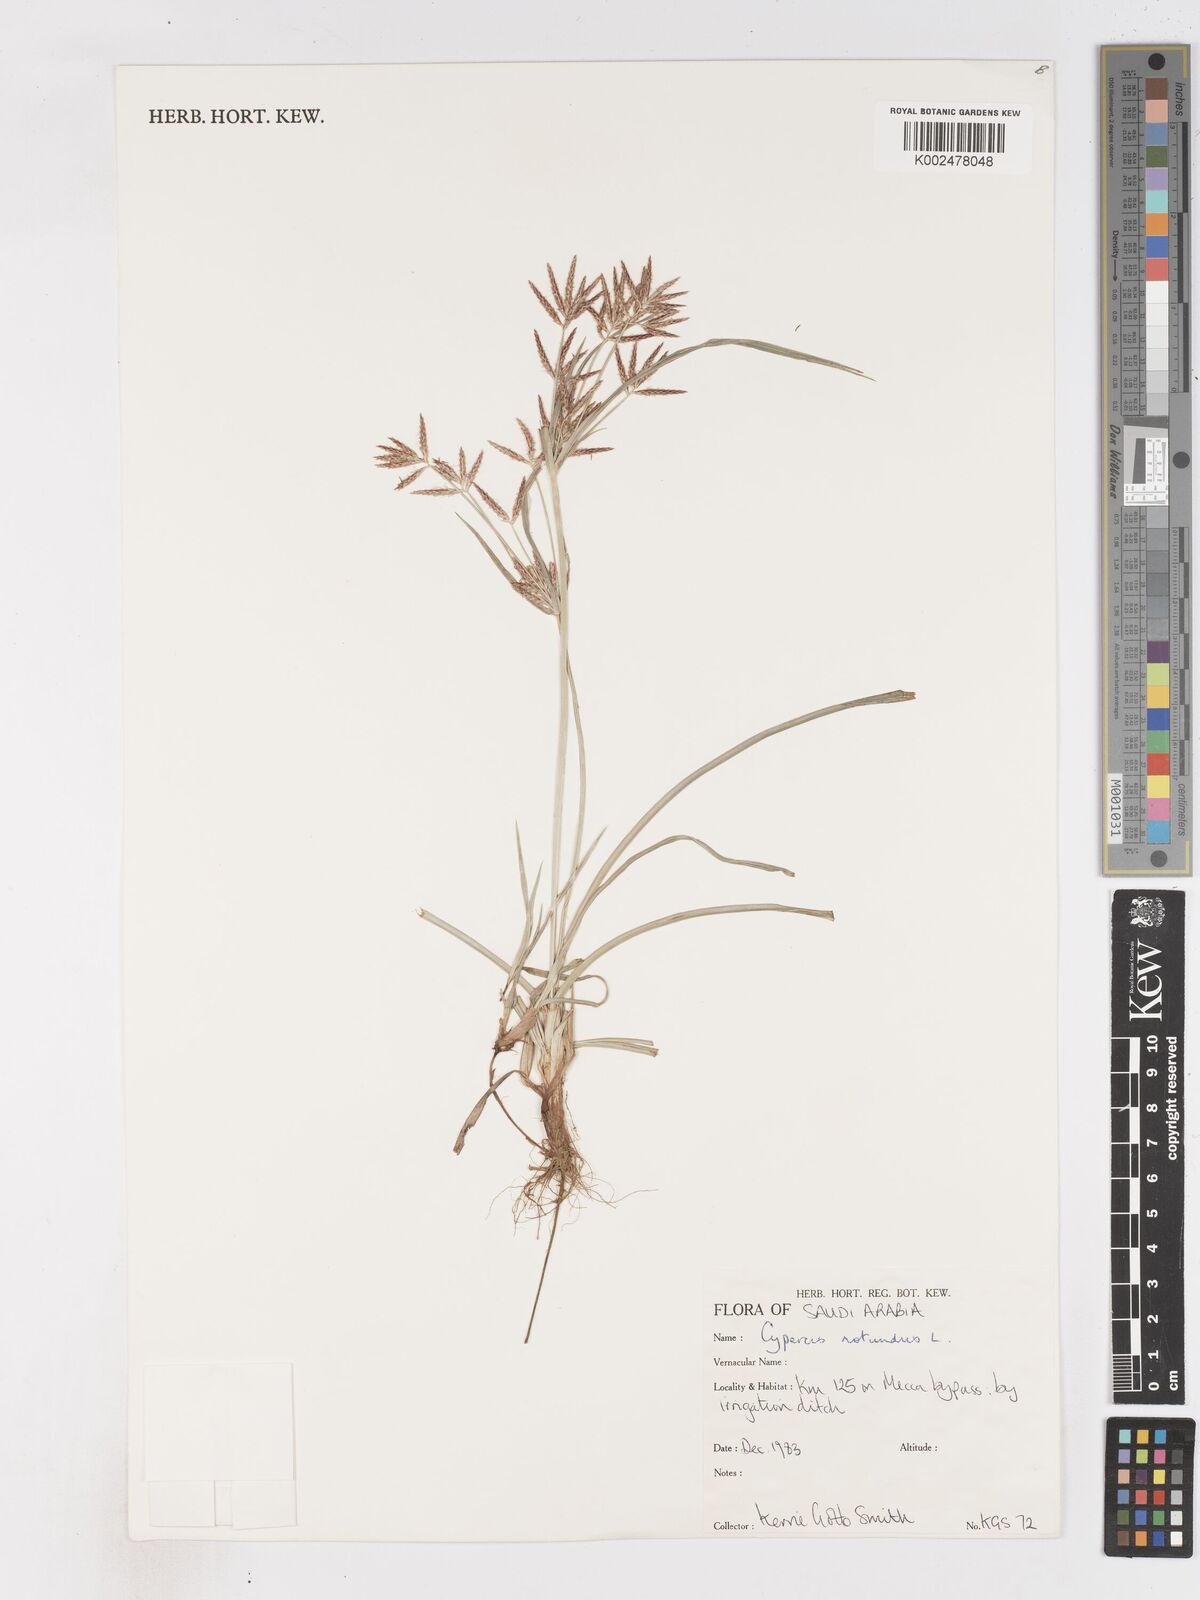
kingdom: Plantae
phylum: Tracheophyta
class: Liliopsida
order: Poales
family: Cyperaceae
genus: Cyperus
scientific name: Cyperus rotundus
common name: Nutgrass
